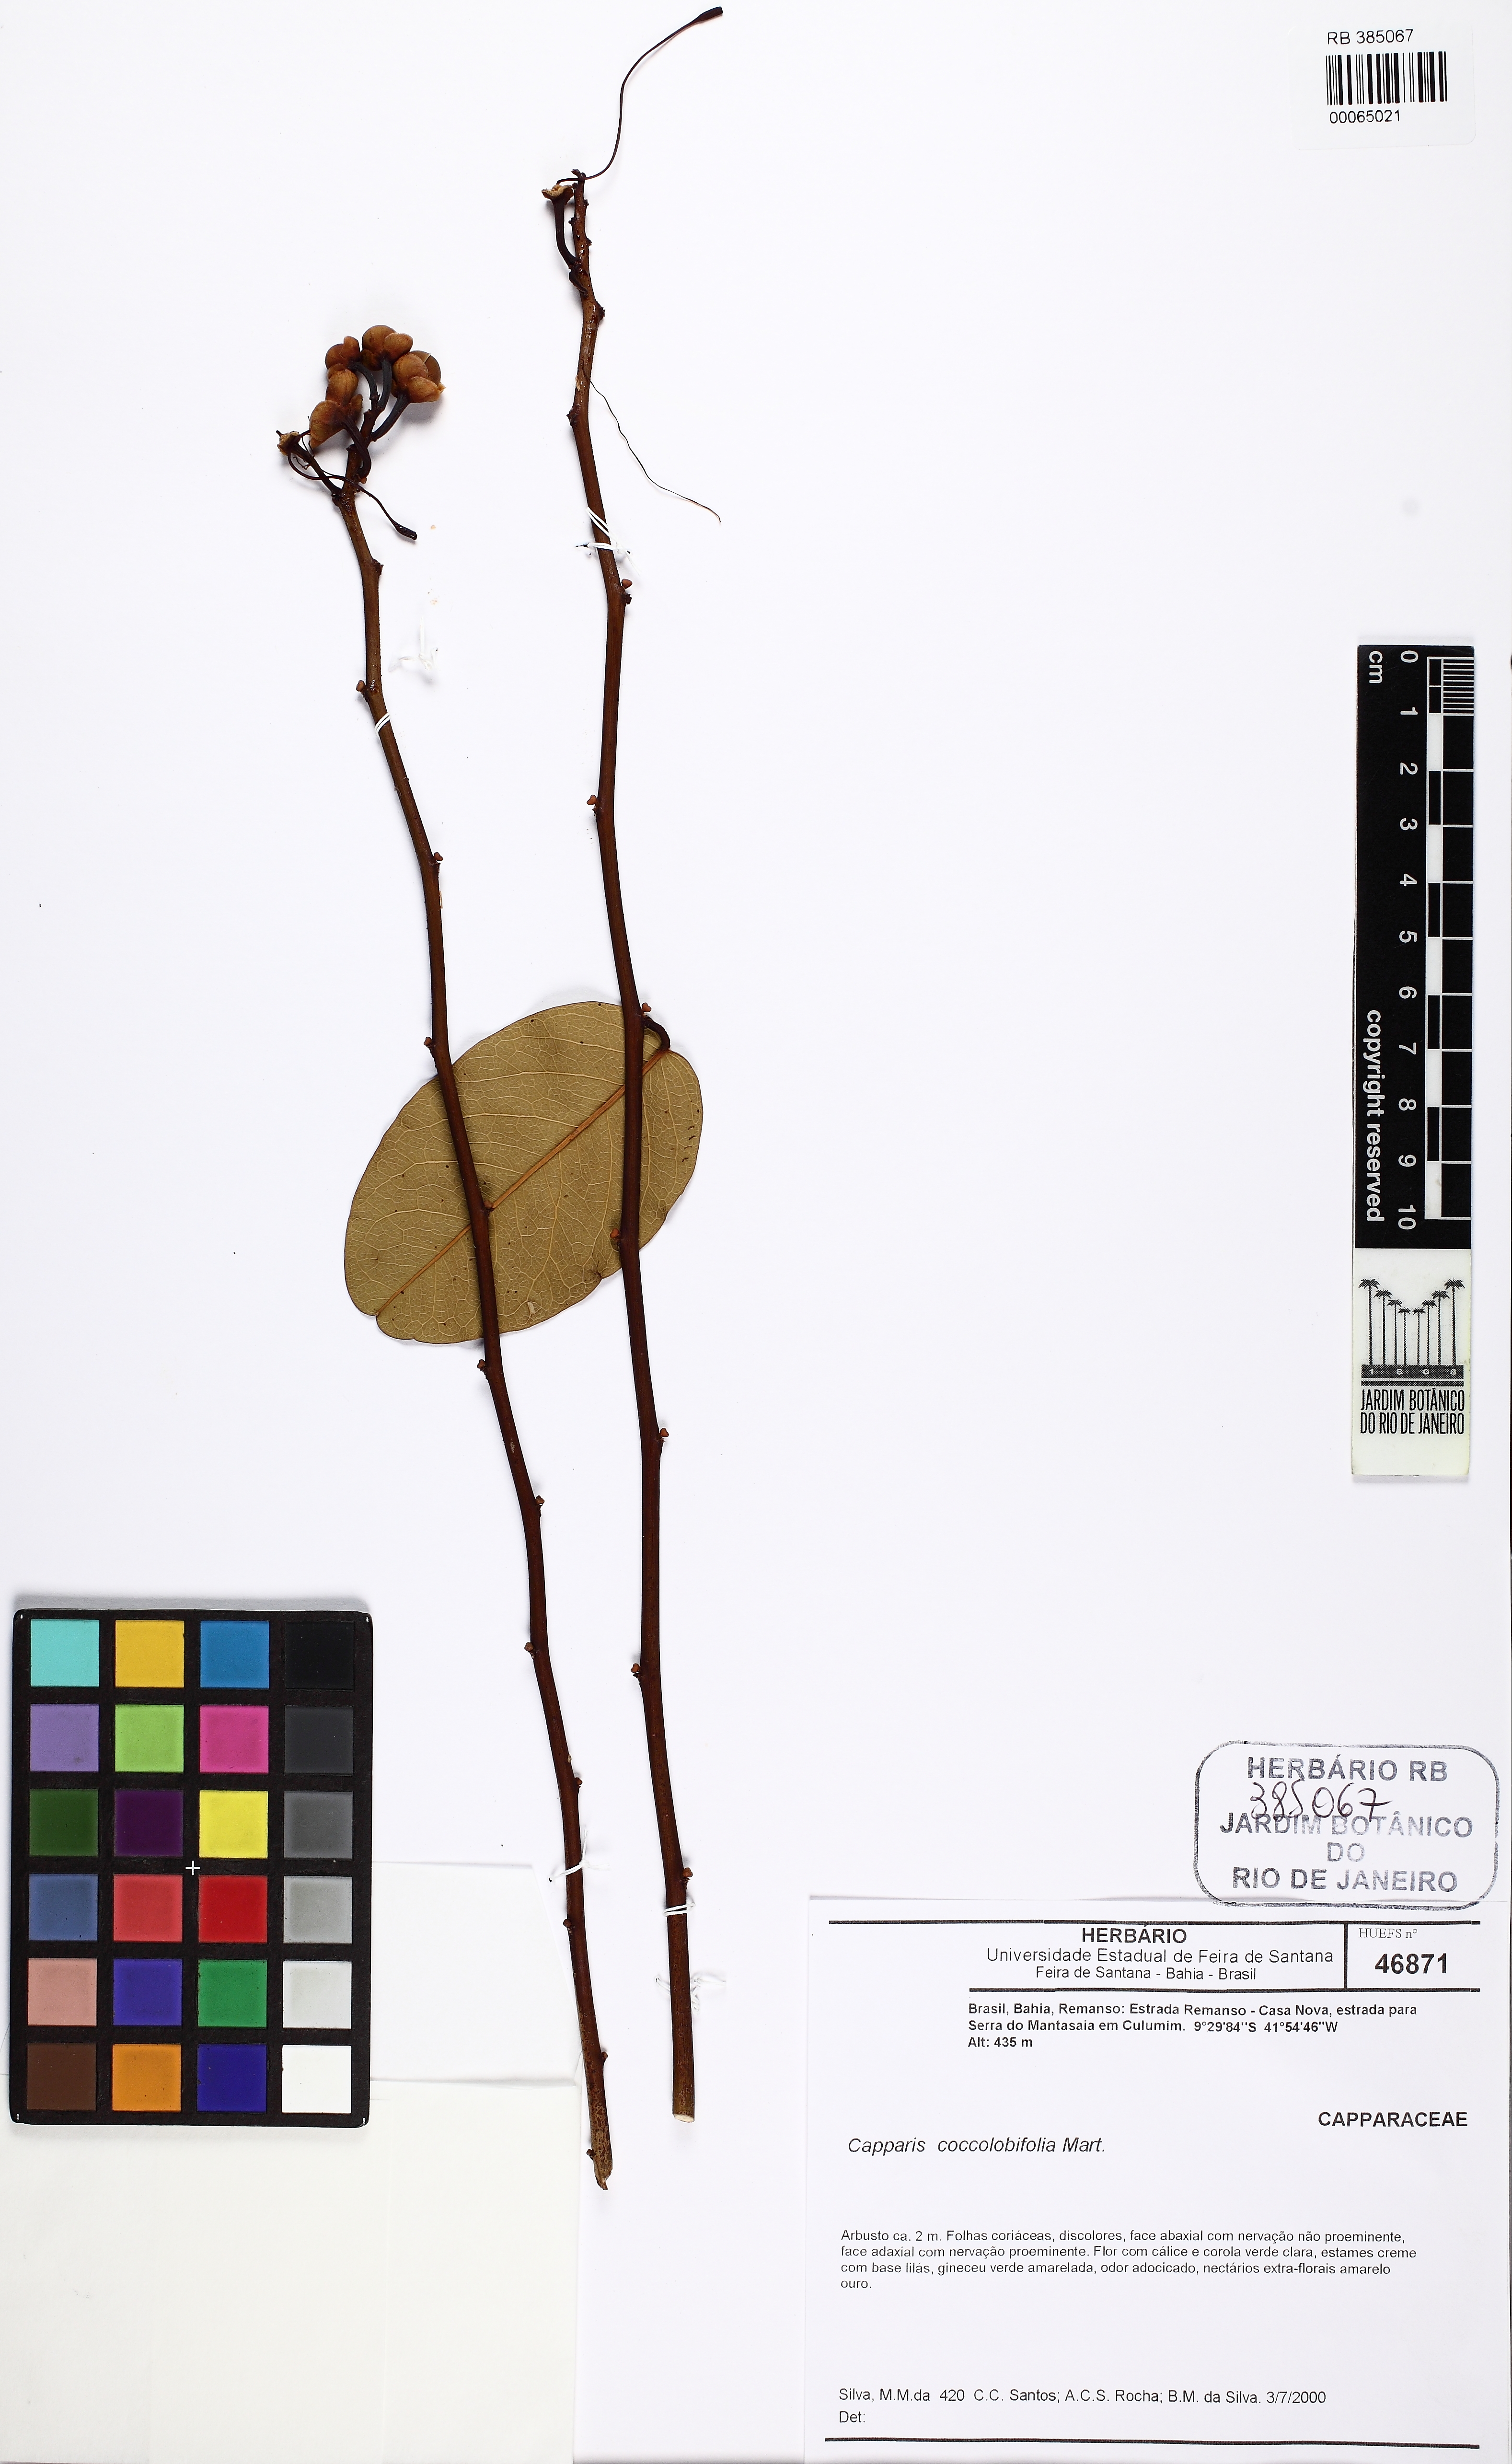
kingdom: Plantae
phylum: Tracheophyta
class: Magnoliopsida
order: Brassicales
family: Capparaceae
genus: Cynophalla
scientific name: Cynophalla hastata
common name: Broadleaf cape
